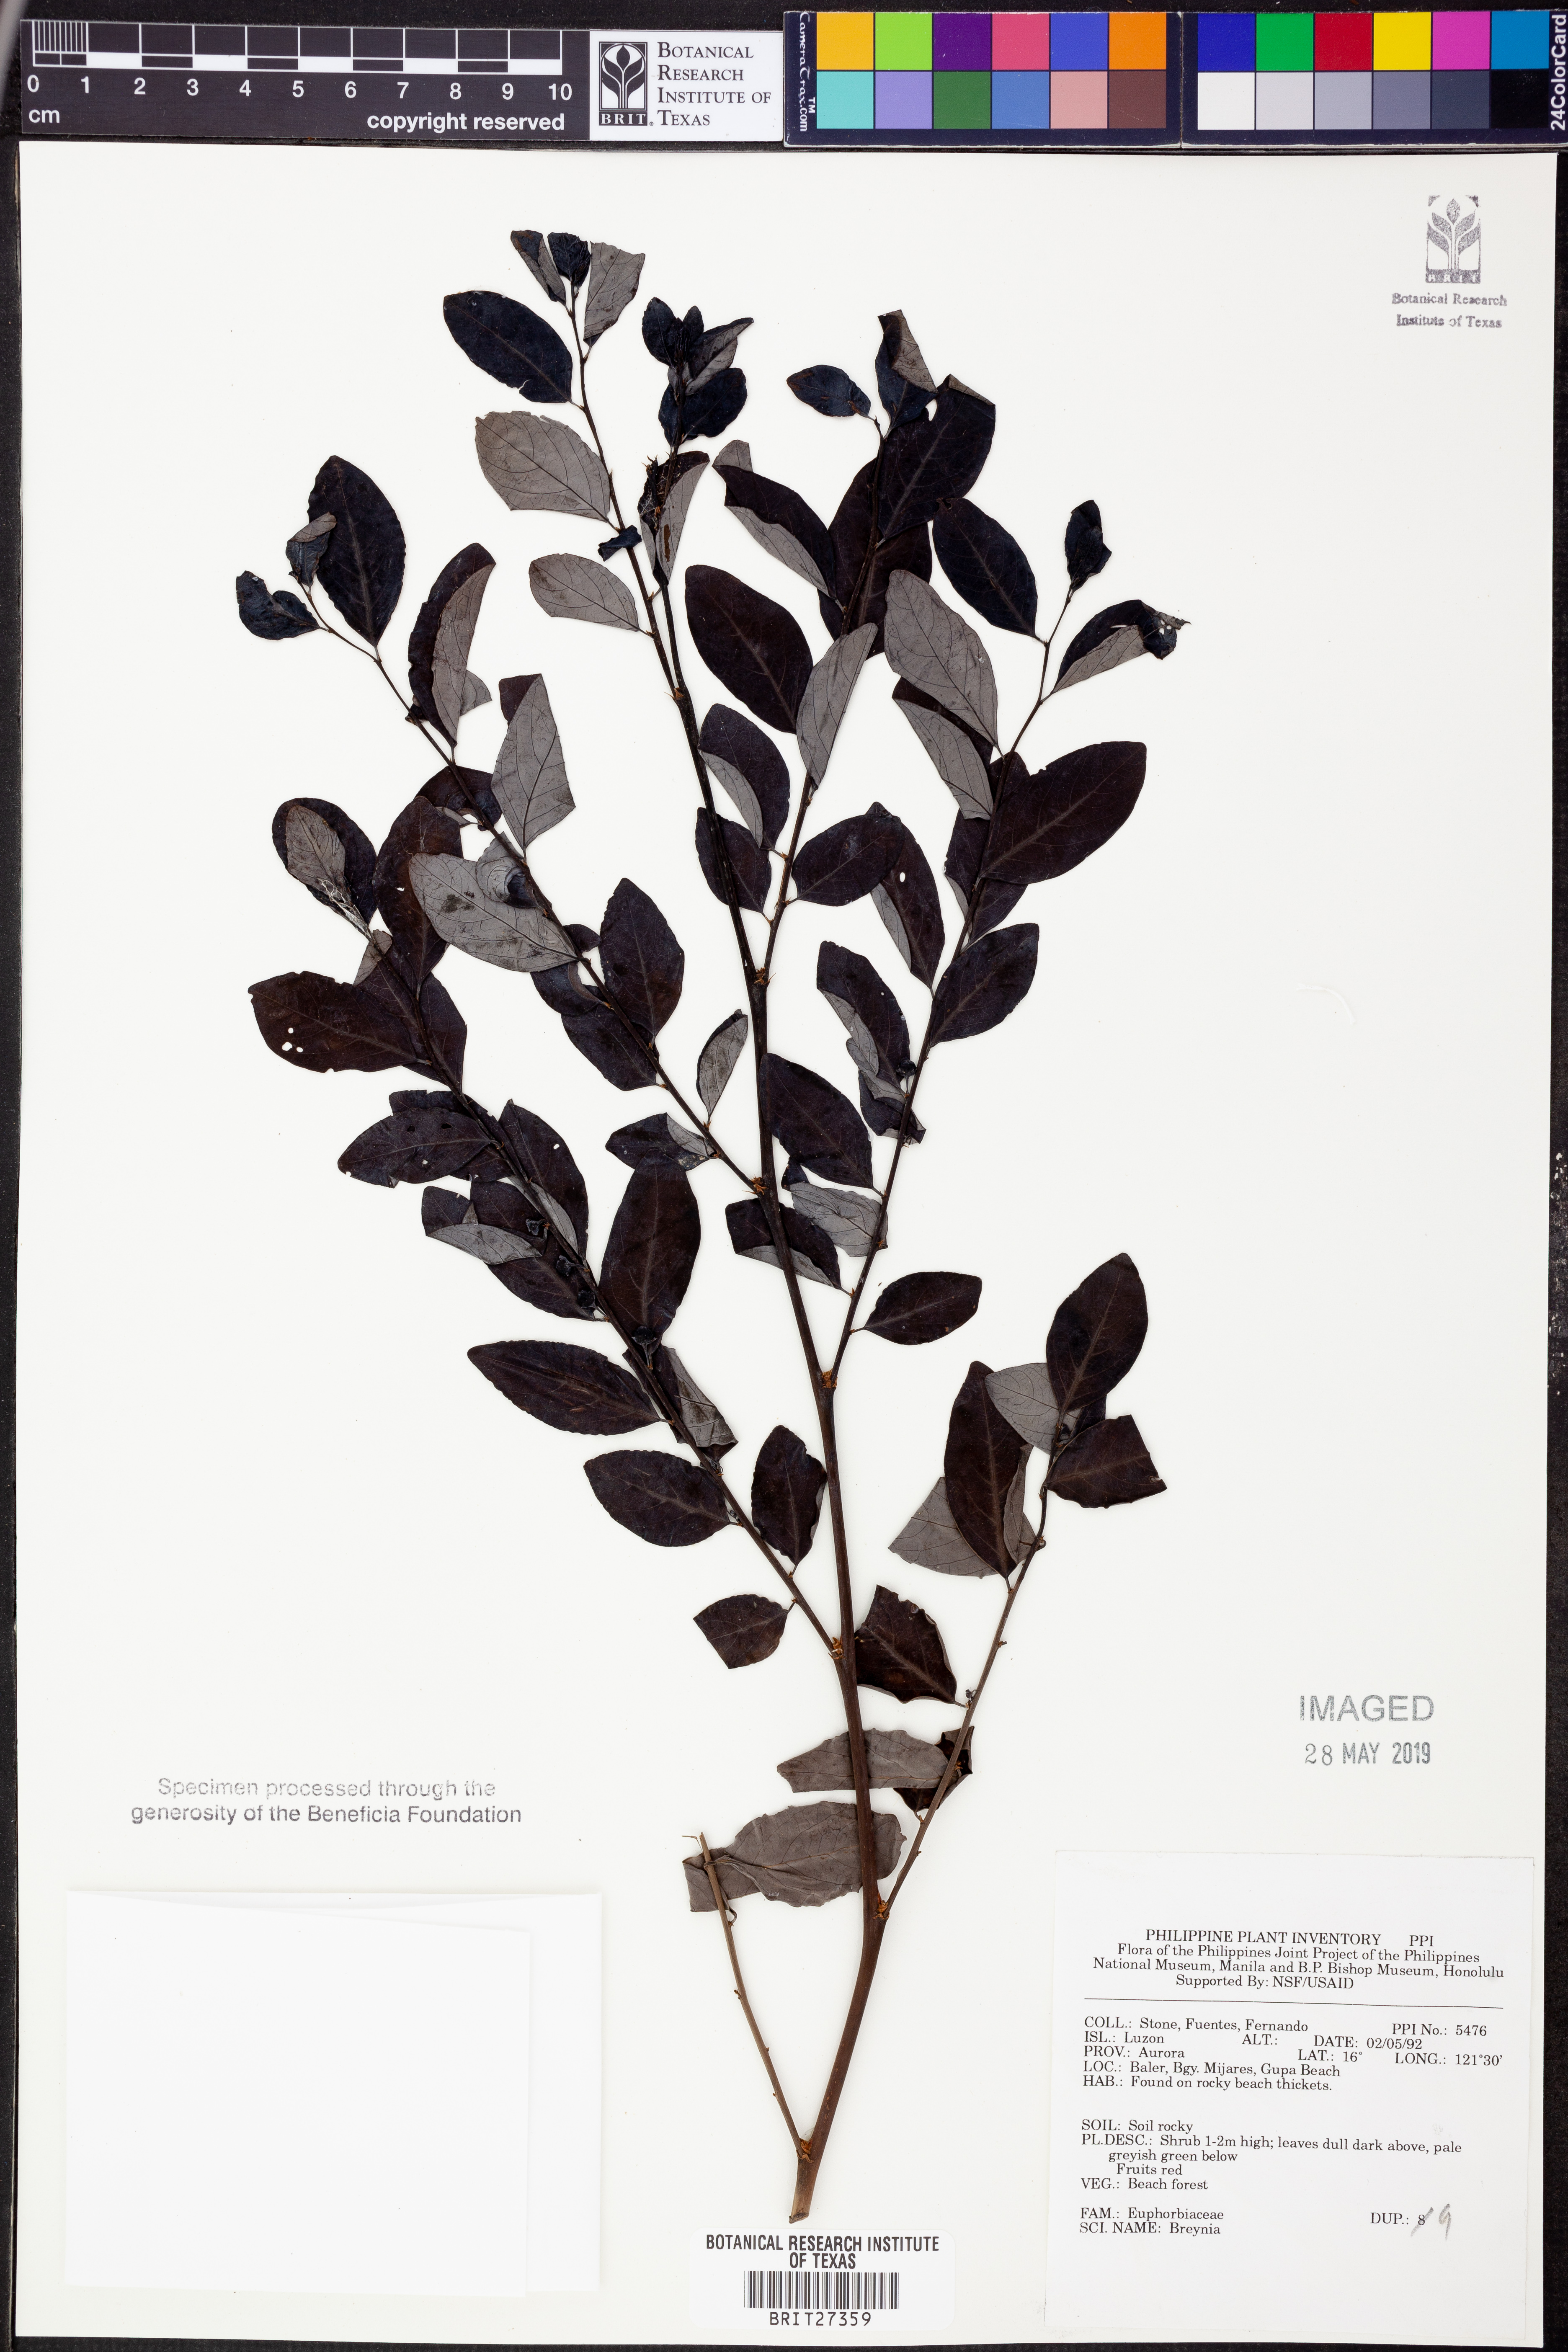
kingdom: Plantae
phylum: Tracheophyta
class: Magnoliopsida
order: Malpighiales
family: Phyllanthaceae
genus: Breynia
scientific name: Breynia
